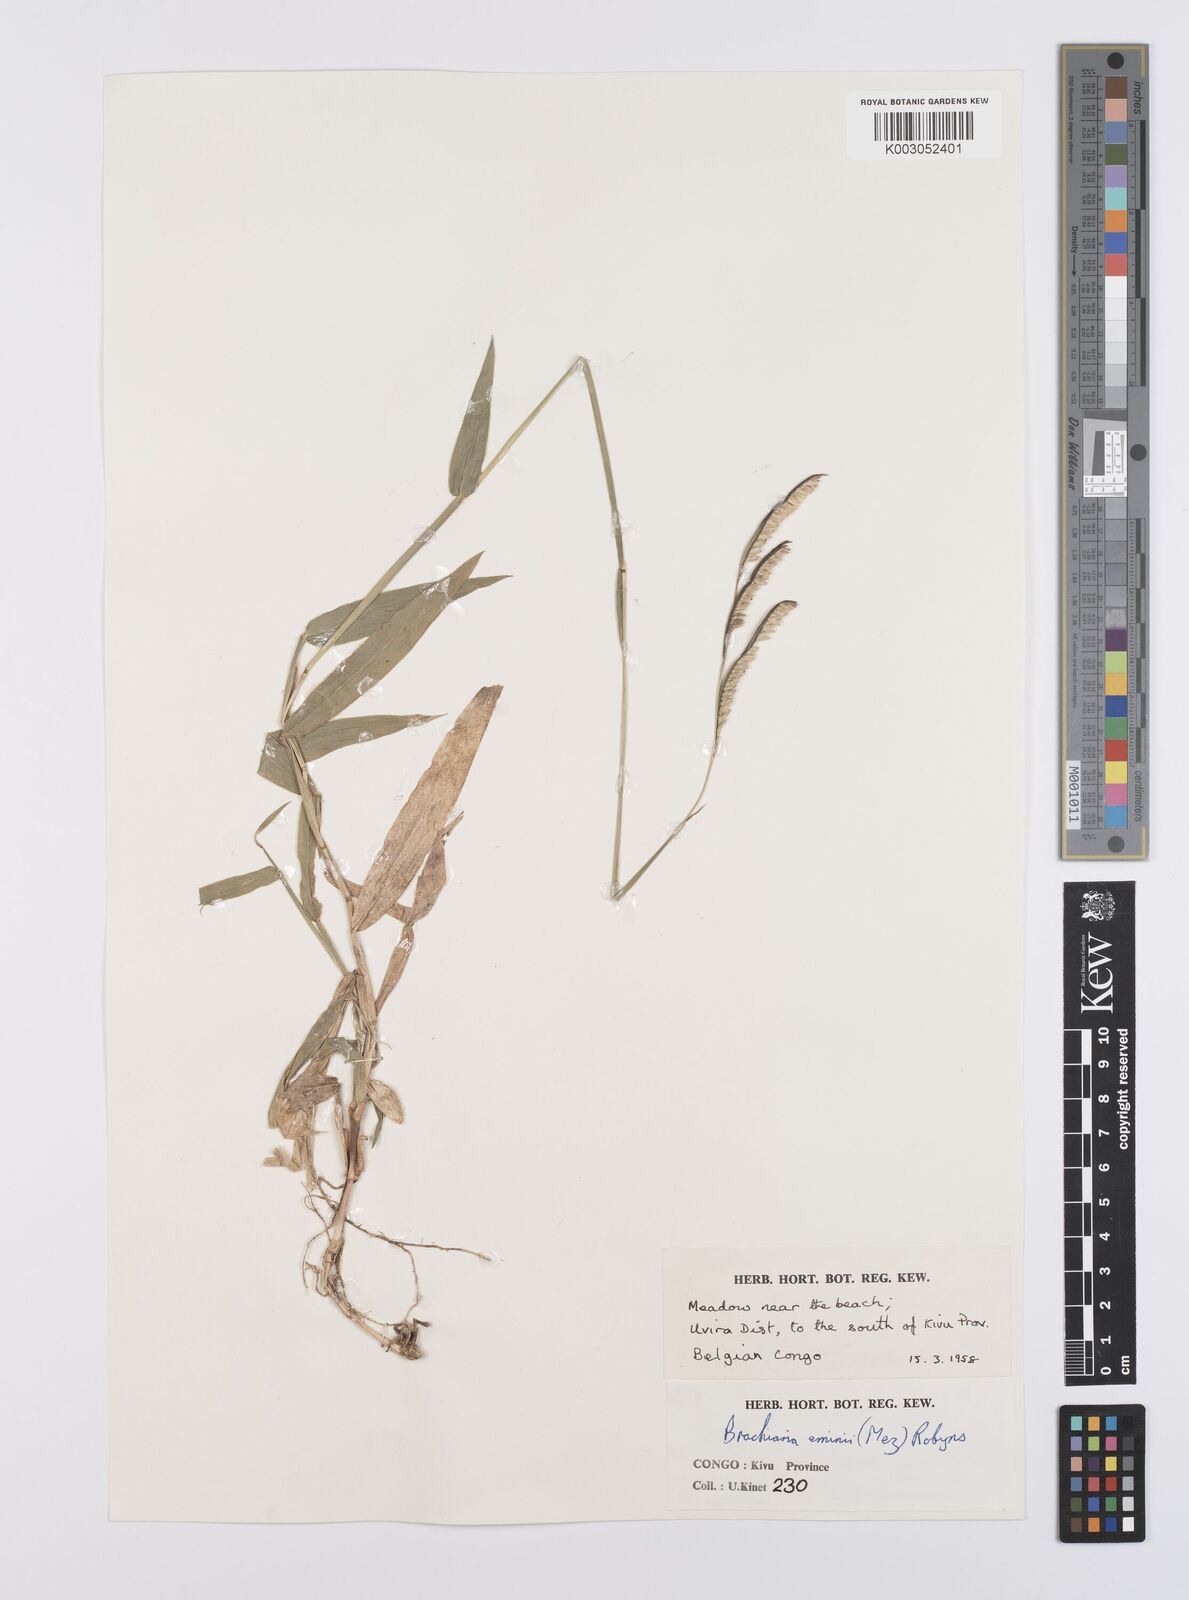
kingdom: Plantae
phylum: Tracheophyta
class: Liliopsida
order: Poales
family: Poaceae
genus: Urochloa
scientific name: Urochloa eminii
